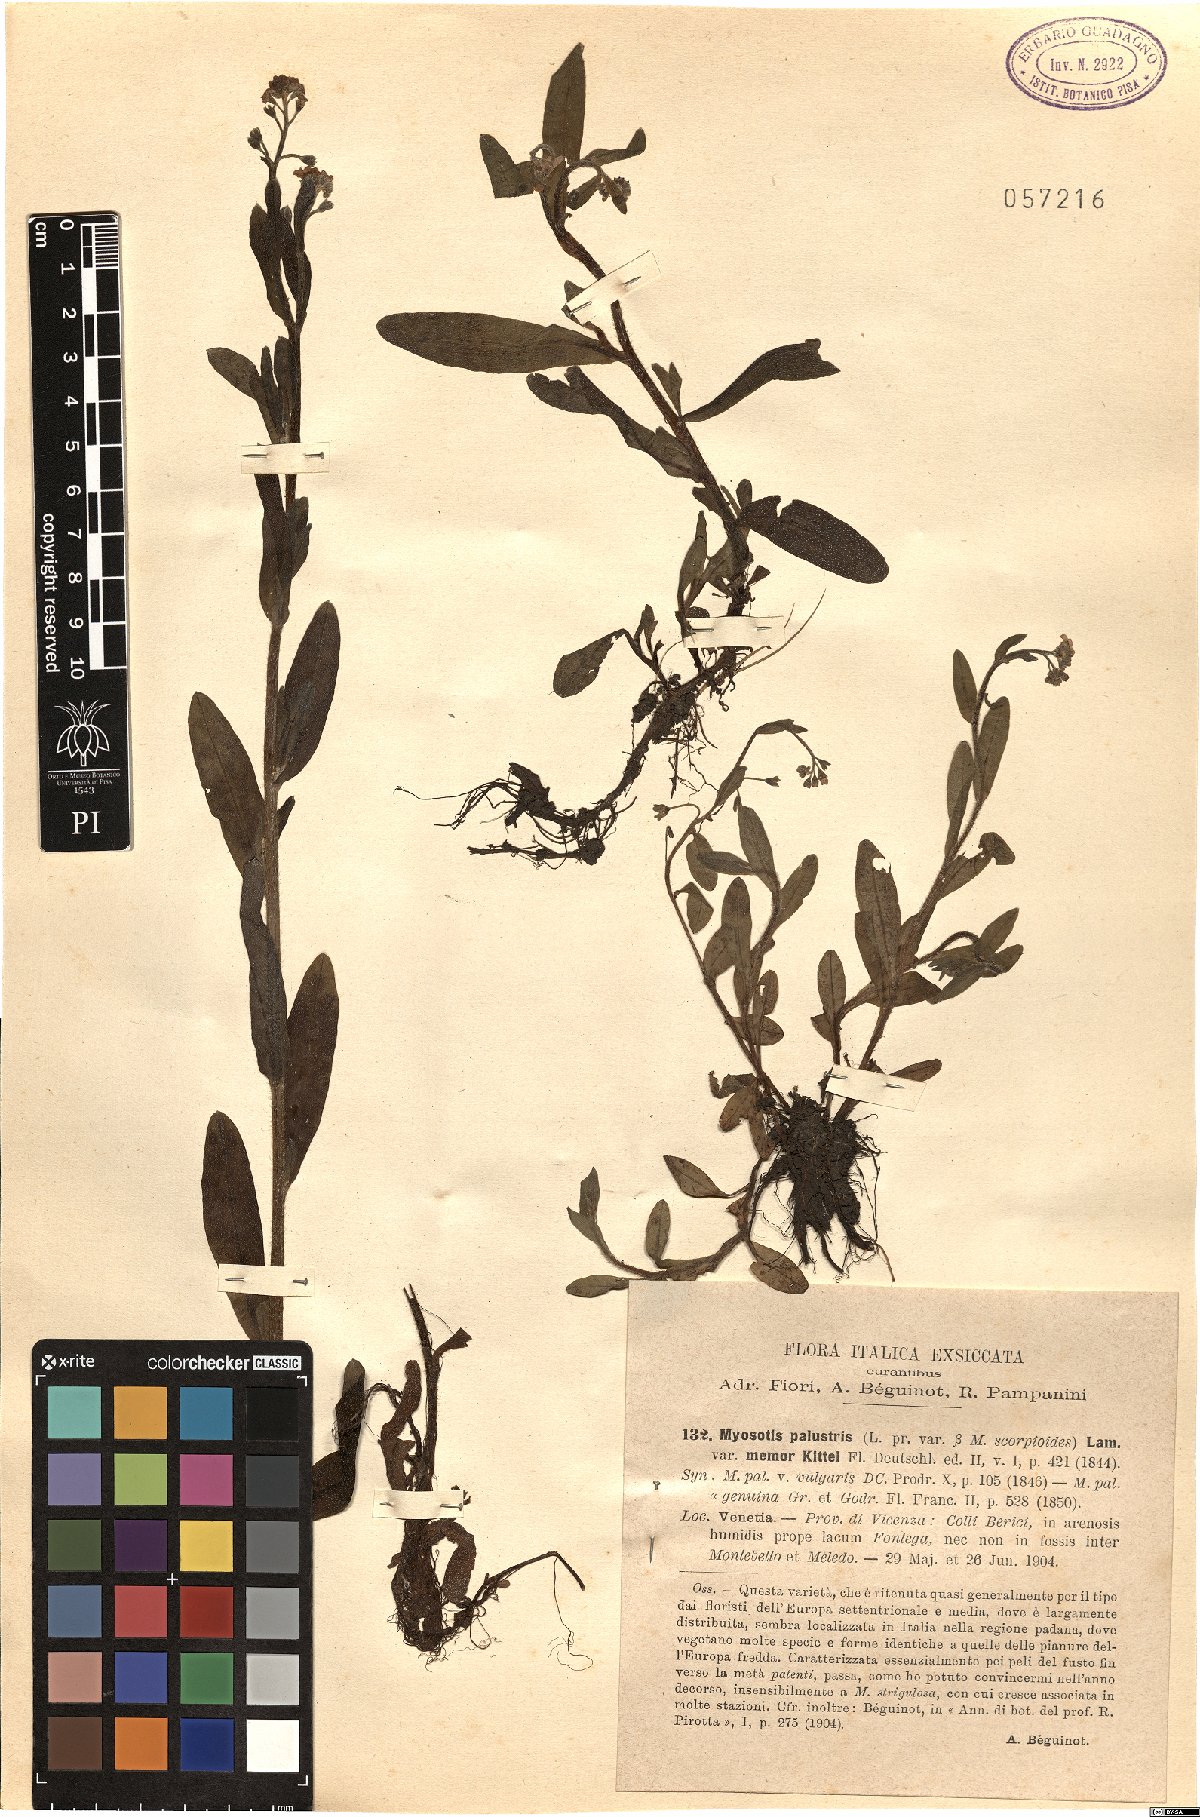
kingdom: Plantae
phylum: Tracheophyta
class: Magnoliopsida
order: Boraginales
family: Boraginaceae
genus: Myosotis
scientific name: Myosotis
